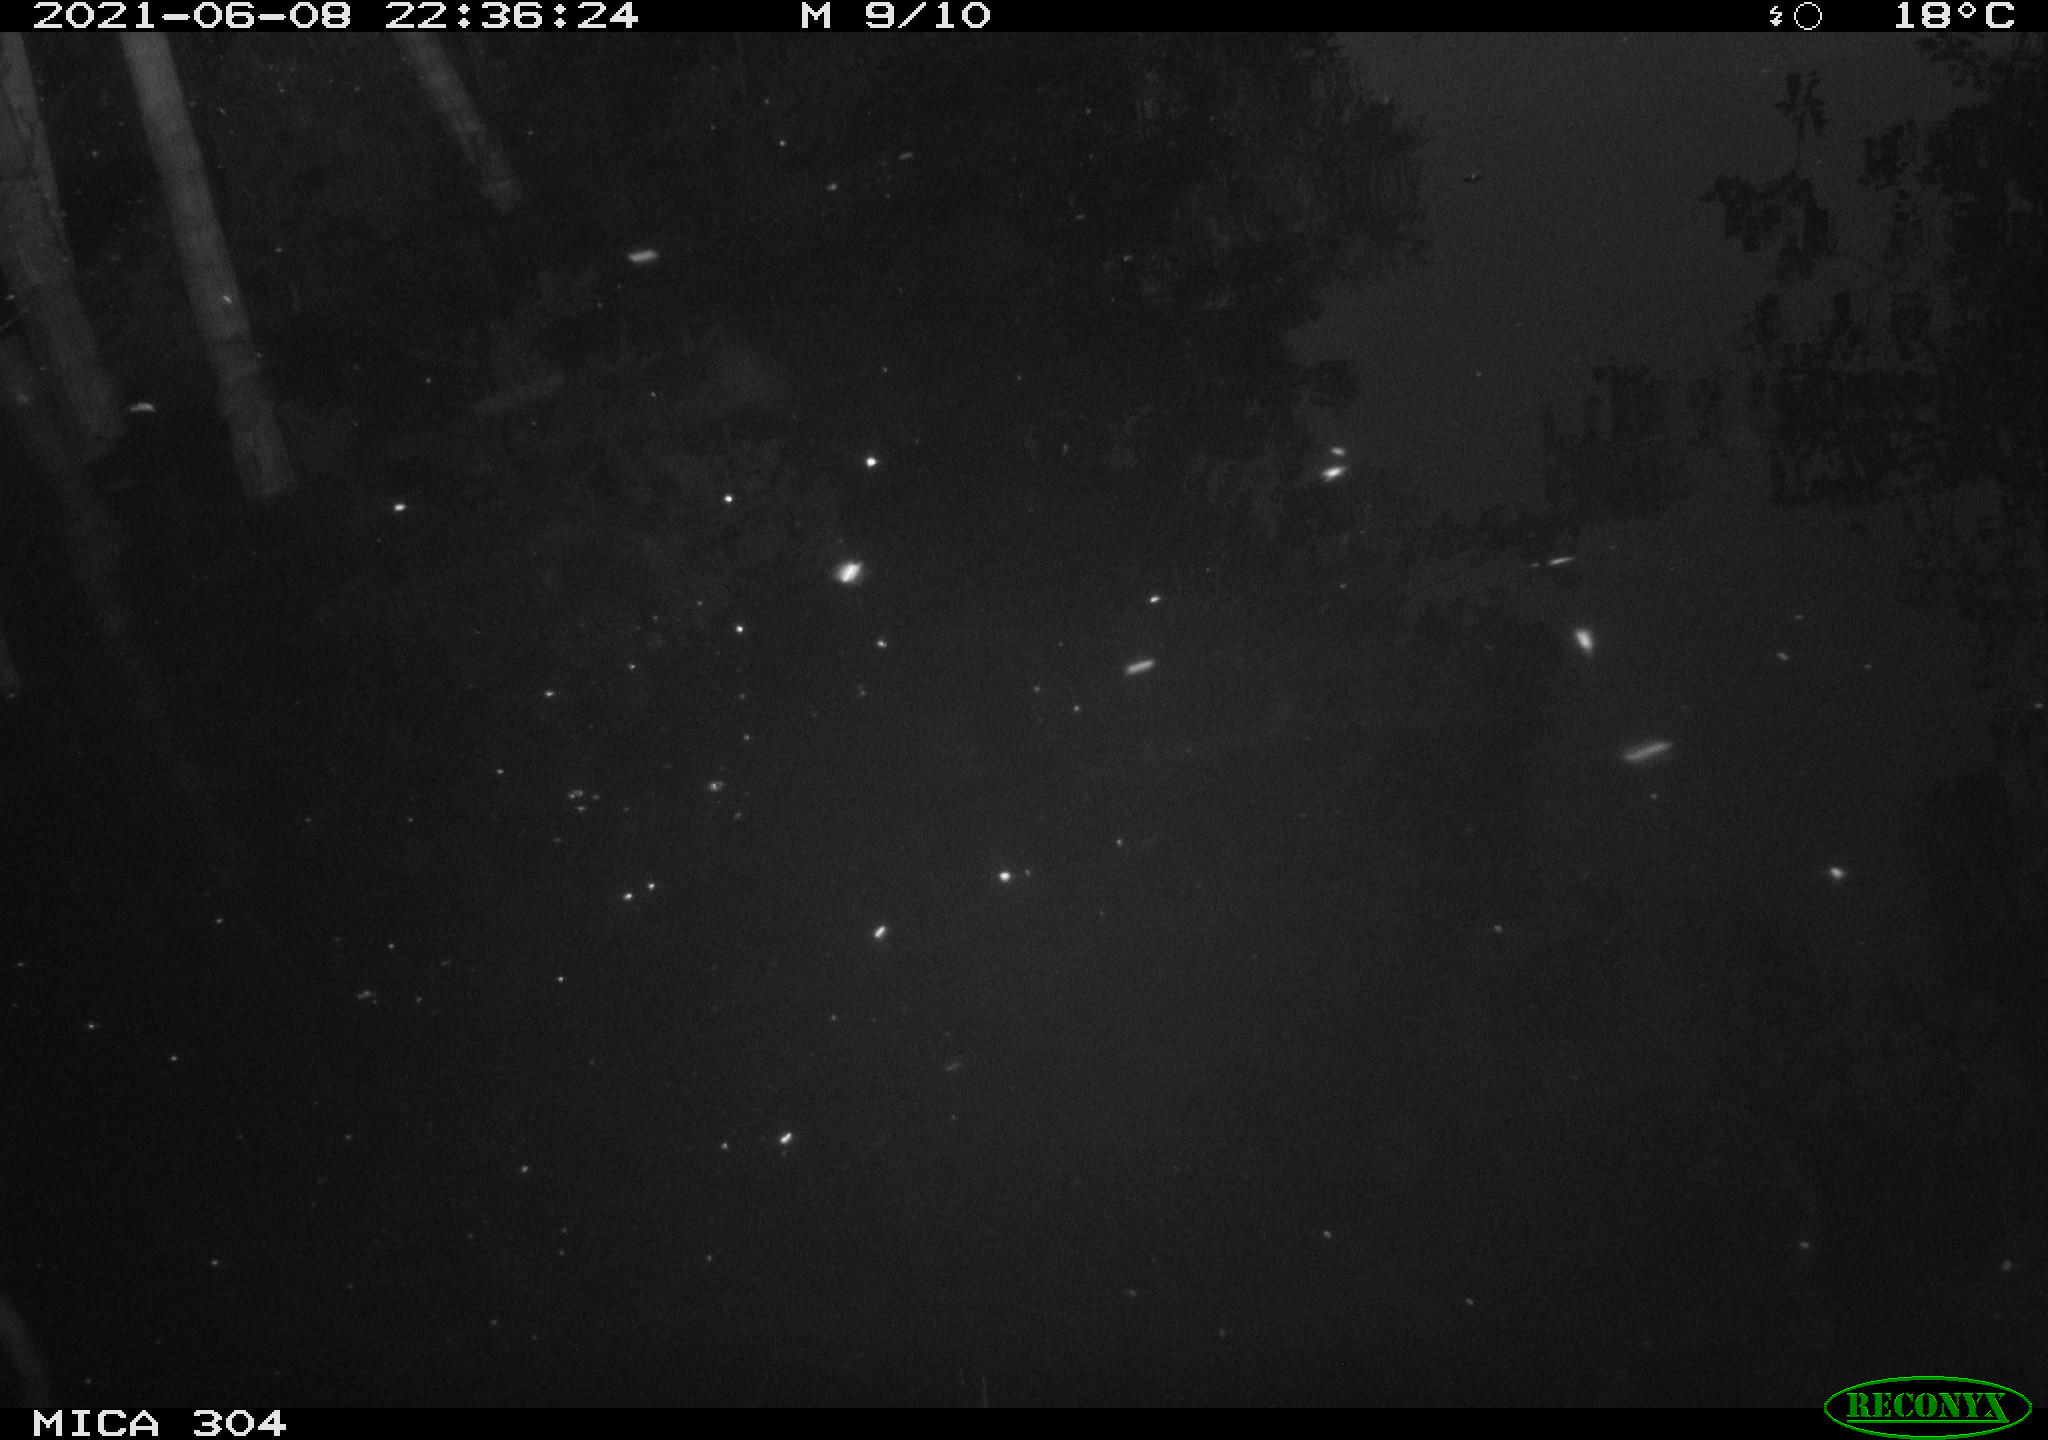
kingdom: Animalia
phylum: Chordata
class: Aves
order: Anseriformes
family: Anatidae
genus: Anas
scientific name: Anas platyrhynchos
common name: Mallard
